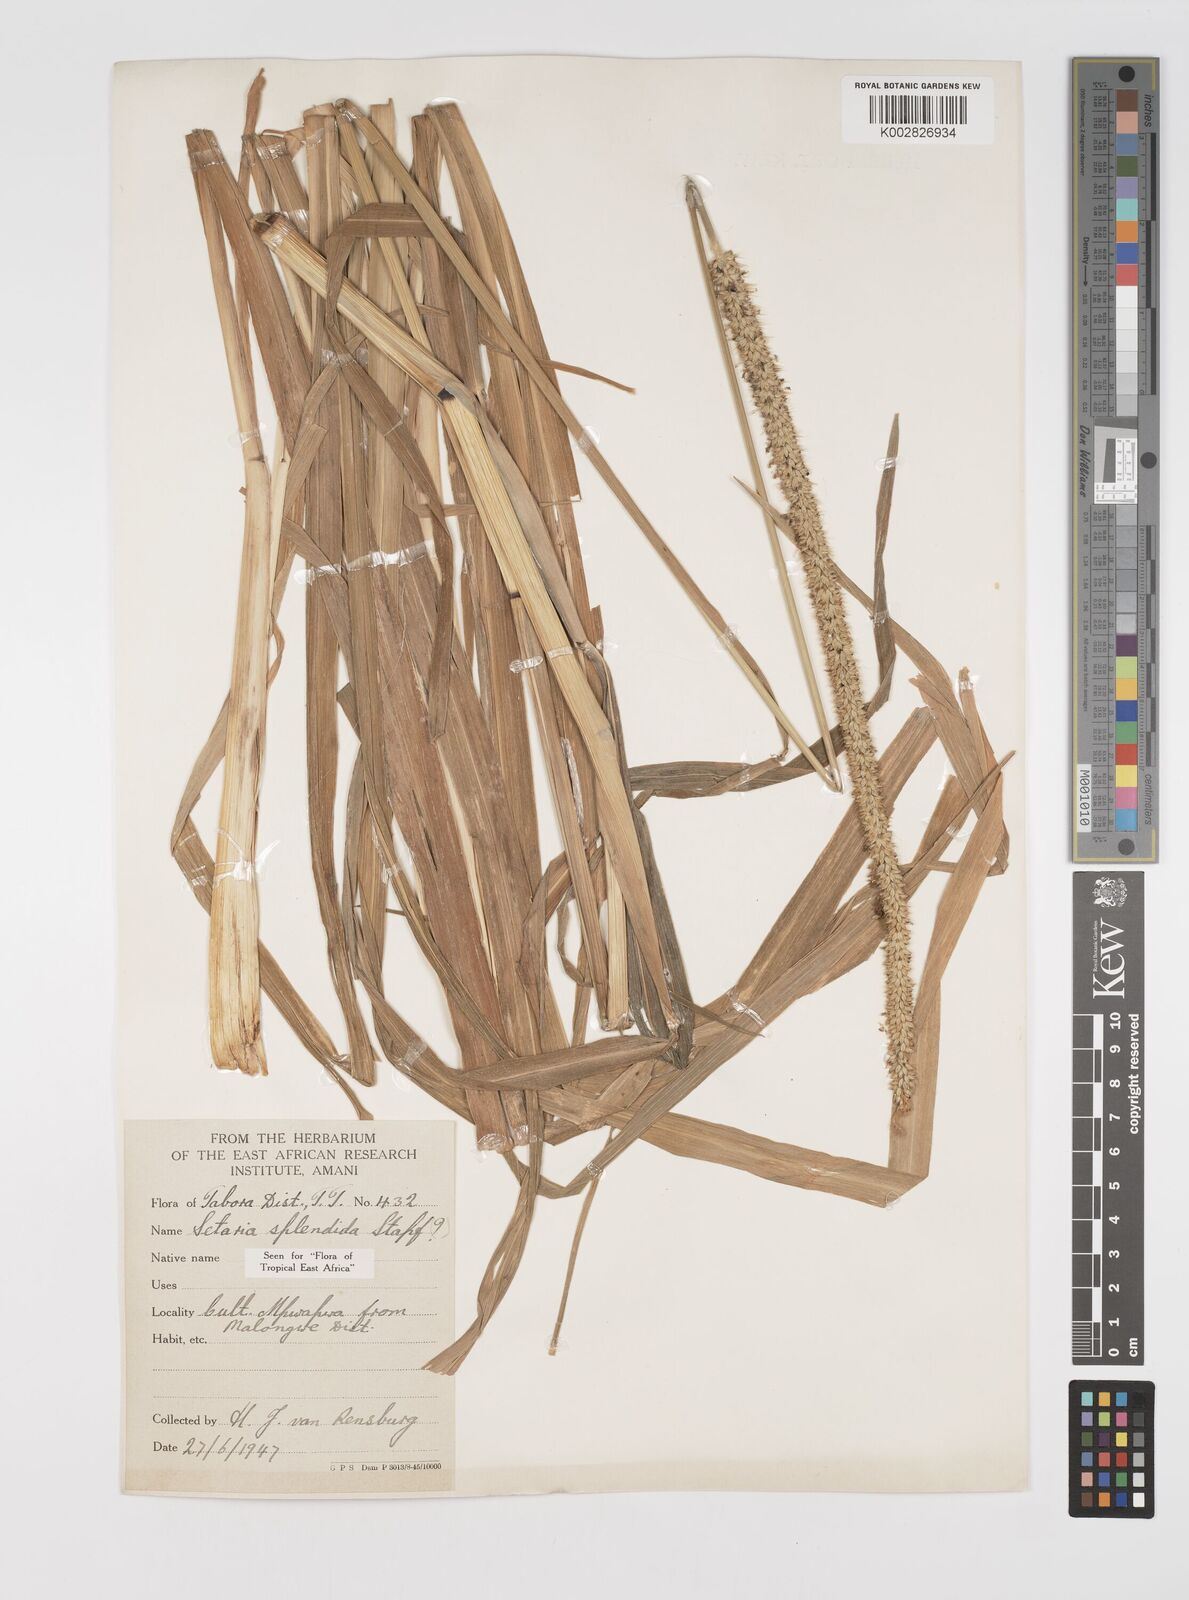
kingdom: Plantae
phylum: Tracheophyta
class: Liliopsida
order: Poales
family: Poaceae
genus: Setaria
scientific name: Setaria sphacelata
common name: African bristlegrass
